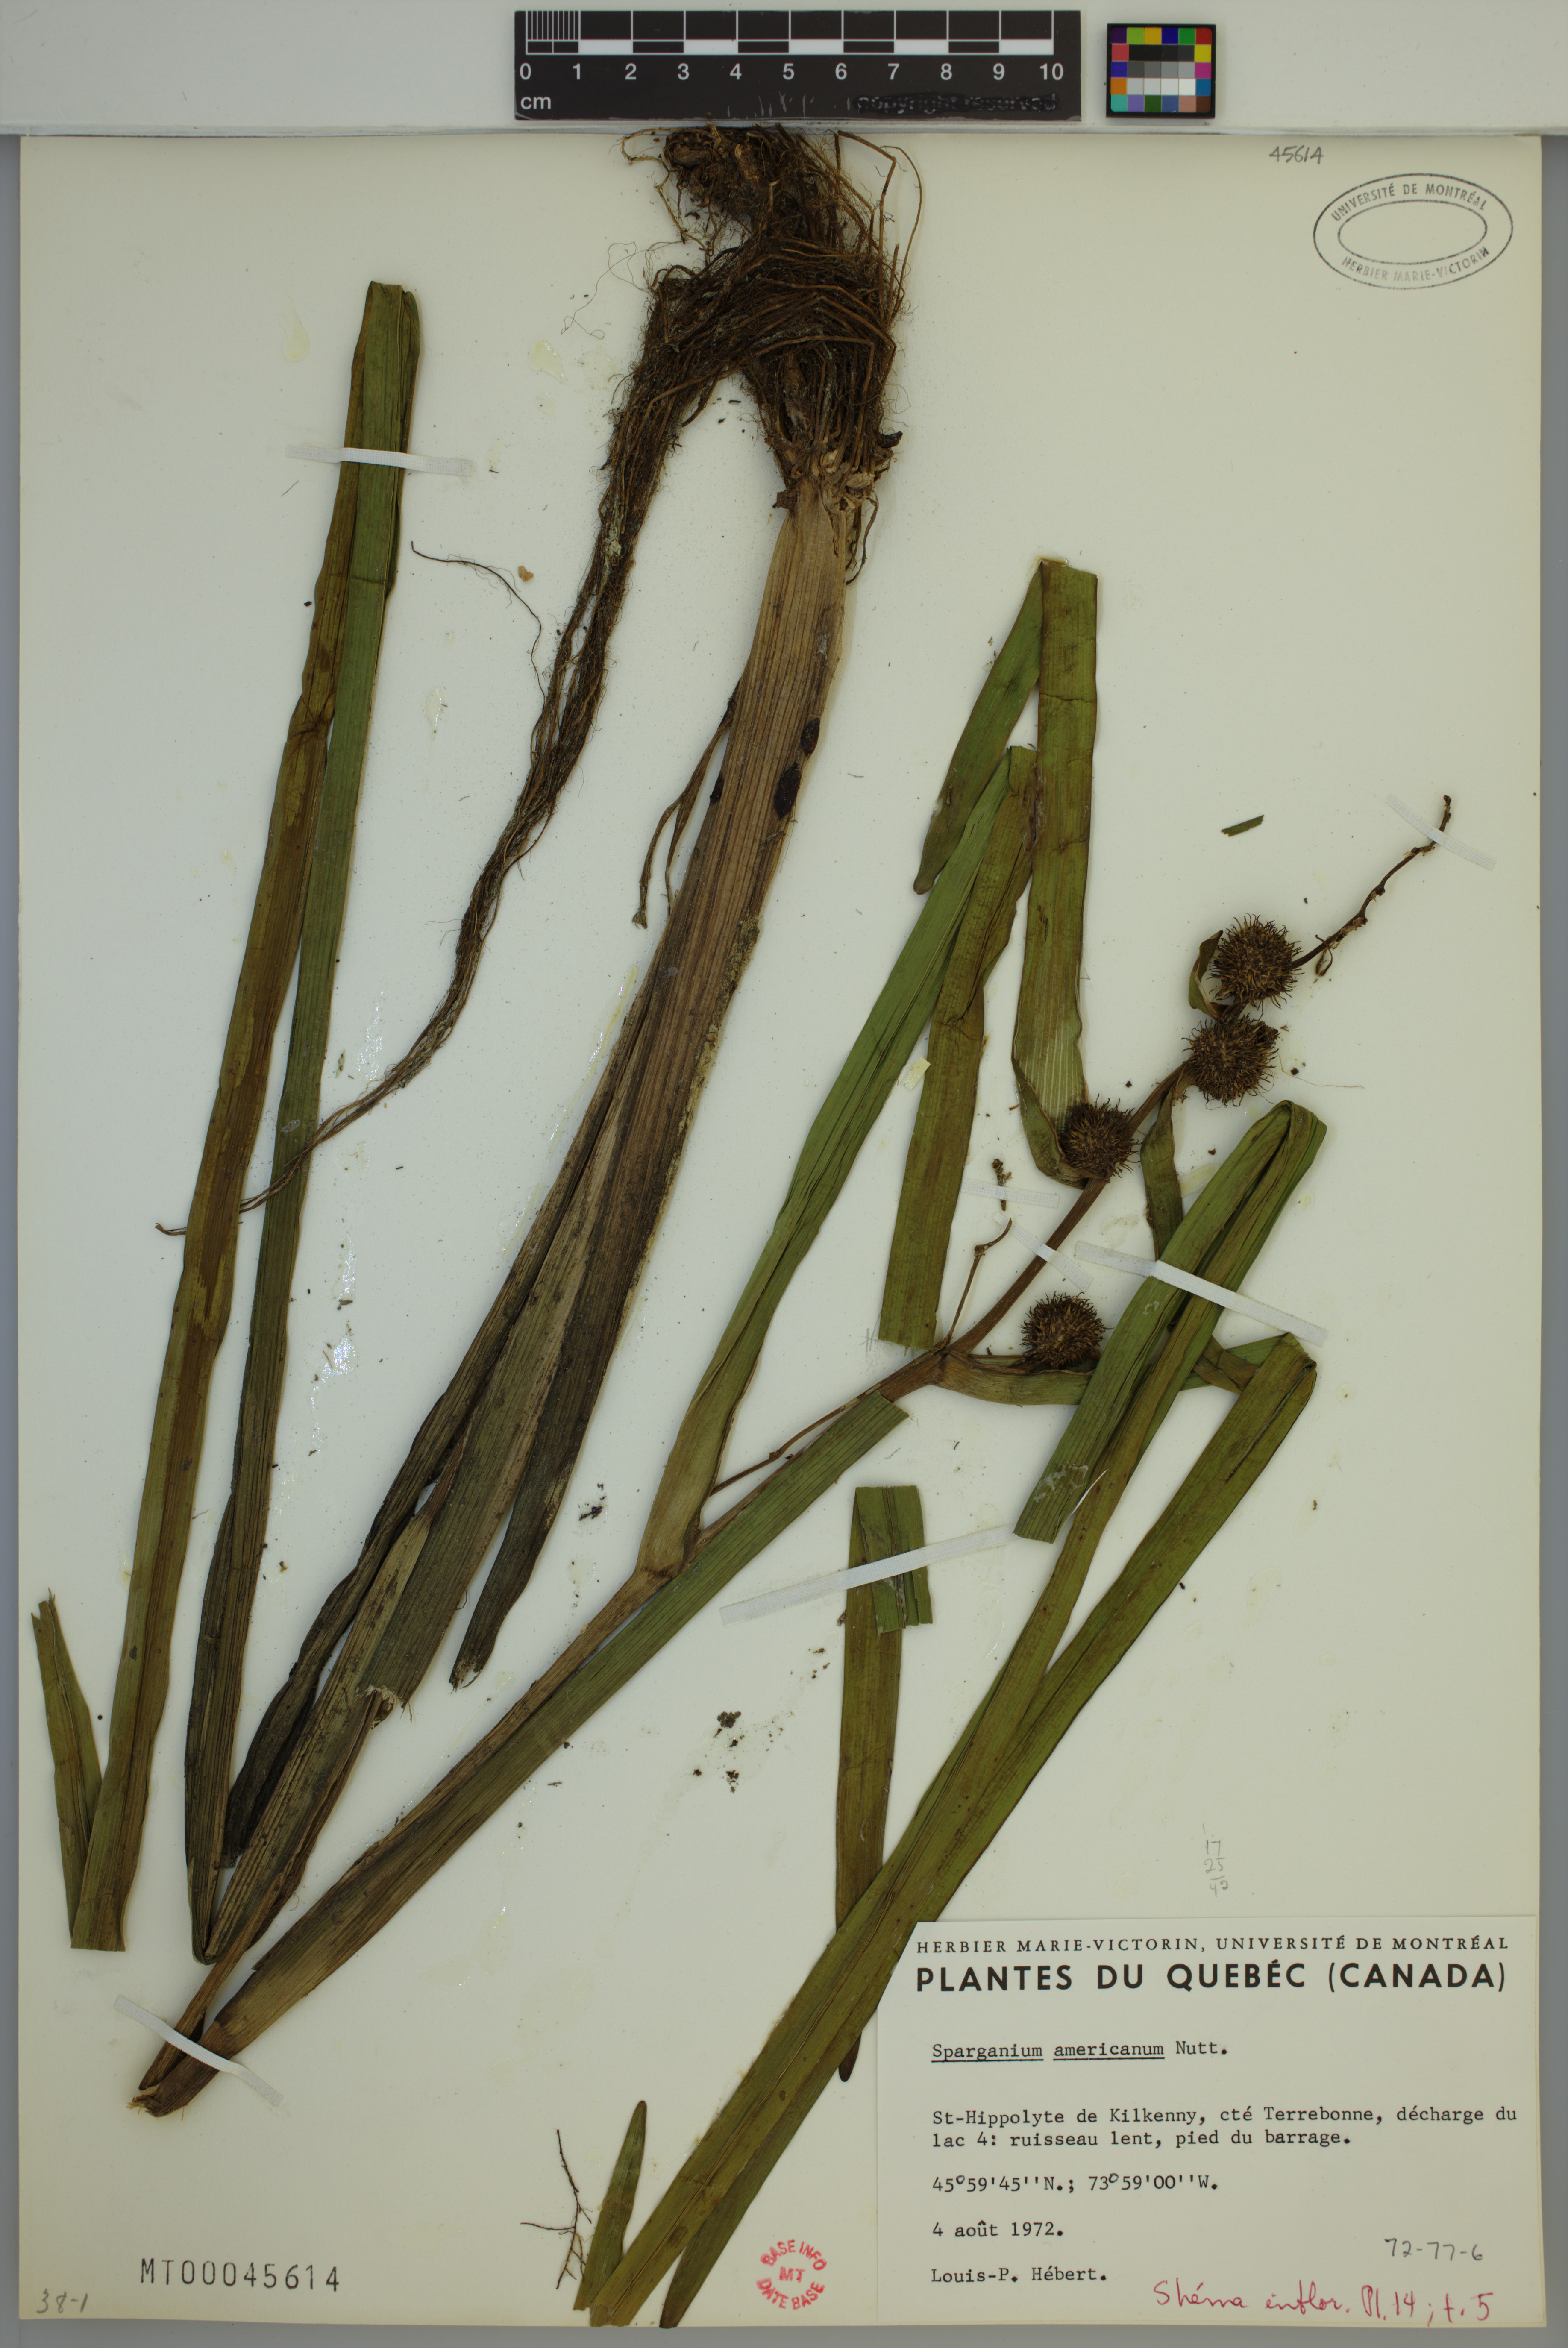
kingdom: Plantae
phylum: Tracheophyta
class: Liliopsida
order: Poales
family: Typhaceae
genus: Sparganium
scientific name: Sparganium americanum
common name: American burreed
